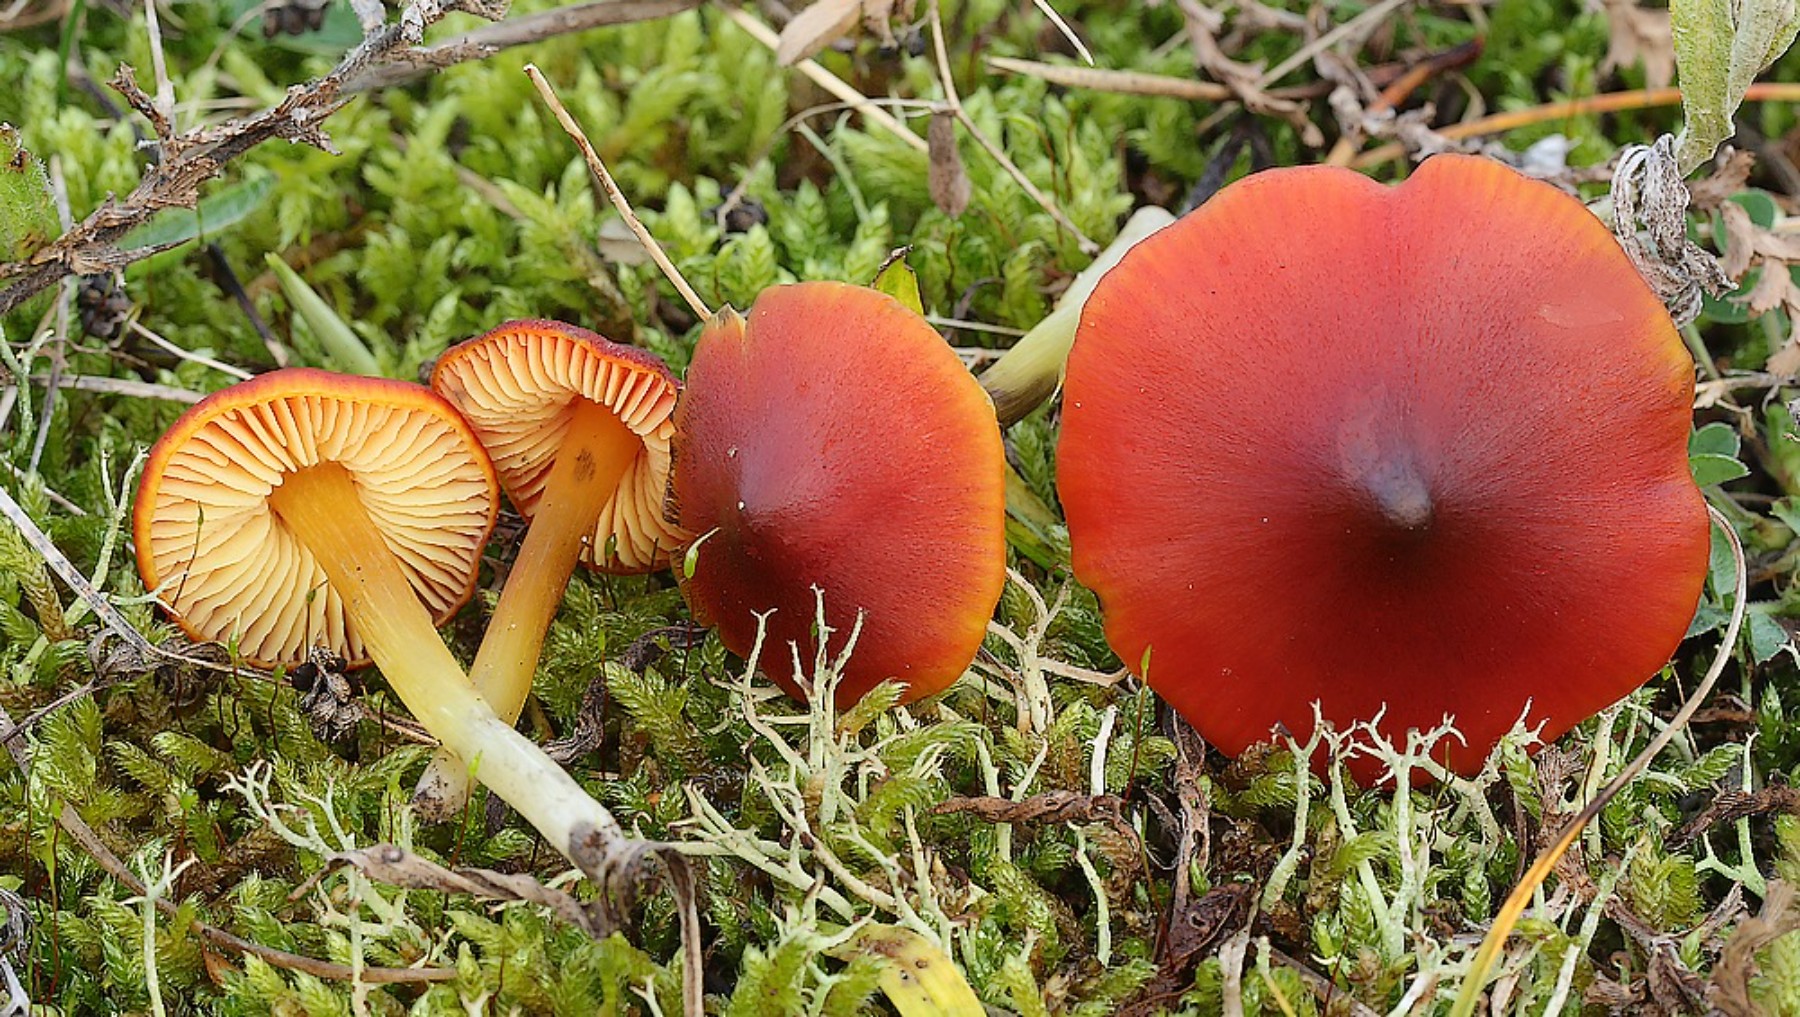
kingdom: Fungi
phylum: Basidiomycota
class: Agaricomycetes
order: Agaricales
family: Hygrophoraceae
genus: Hygrocybe
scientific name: Hygrocybe conica
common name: kegle-vokshat
